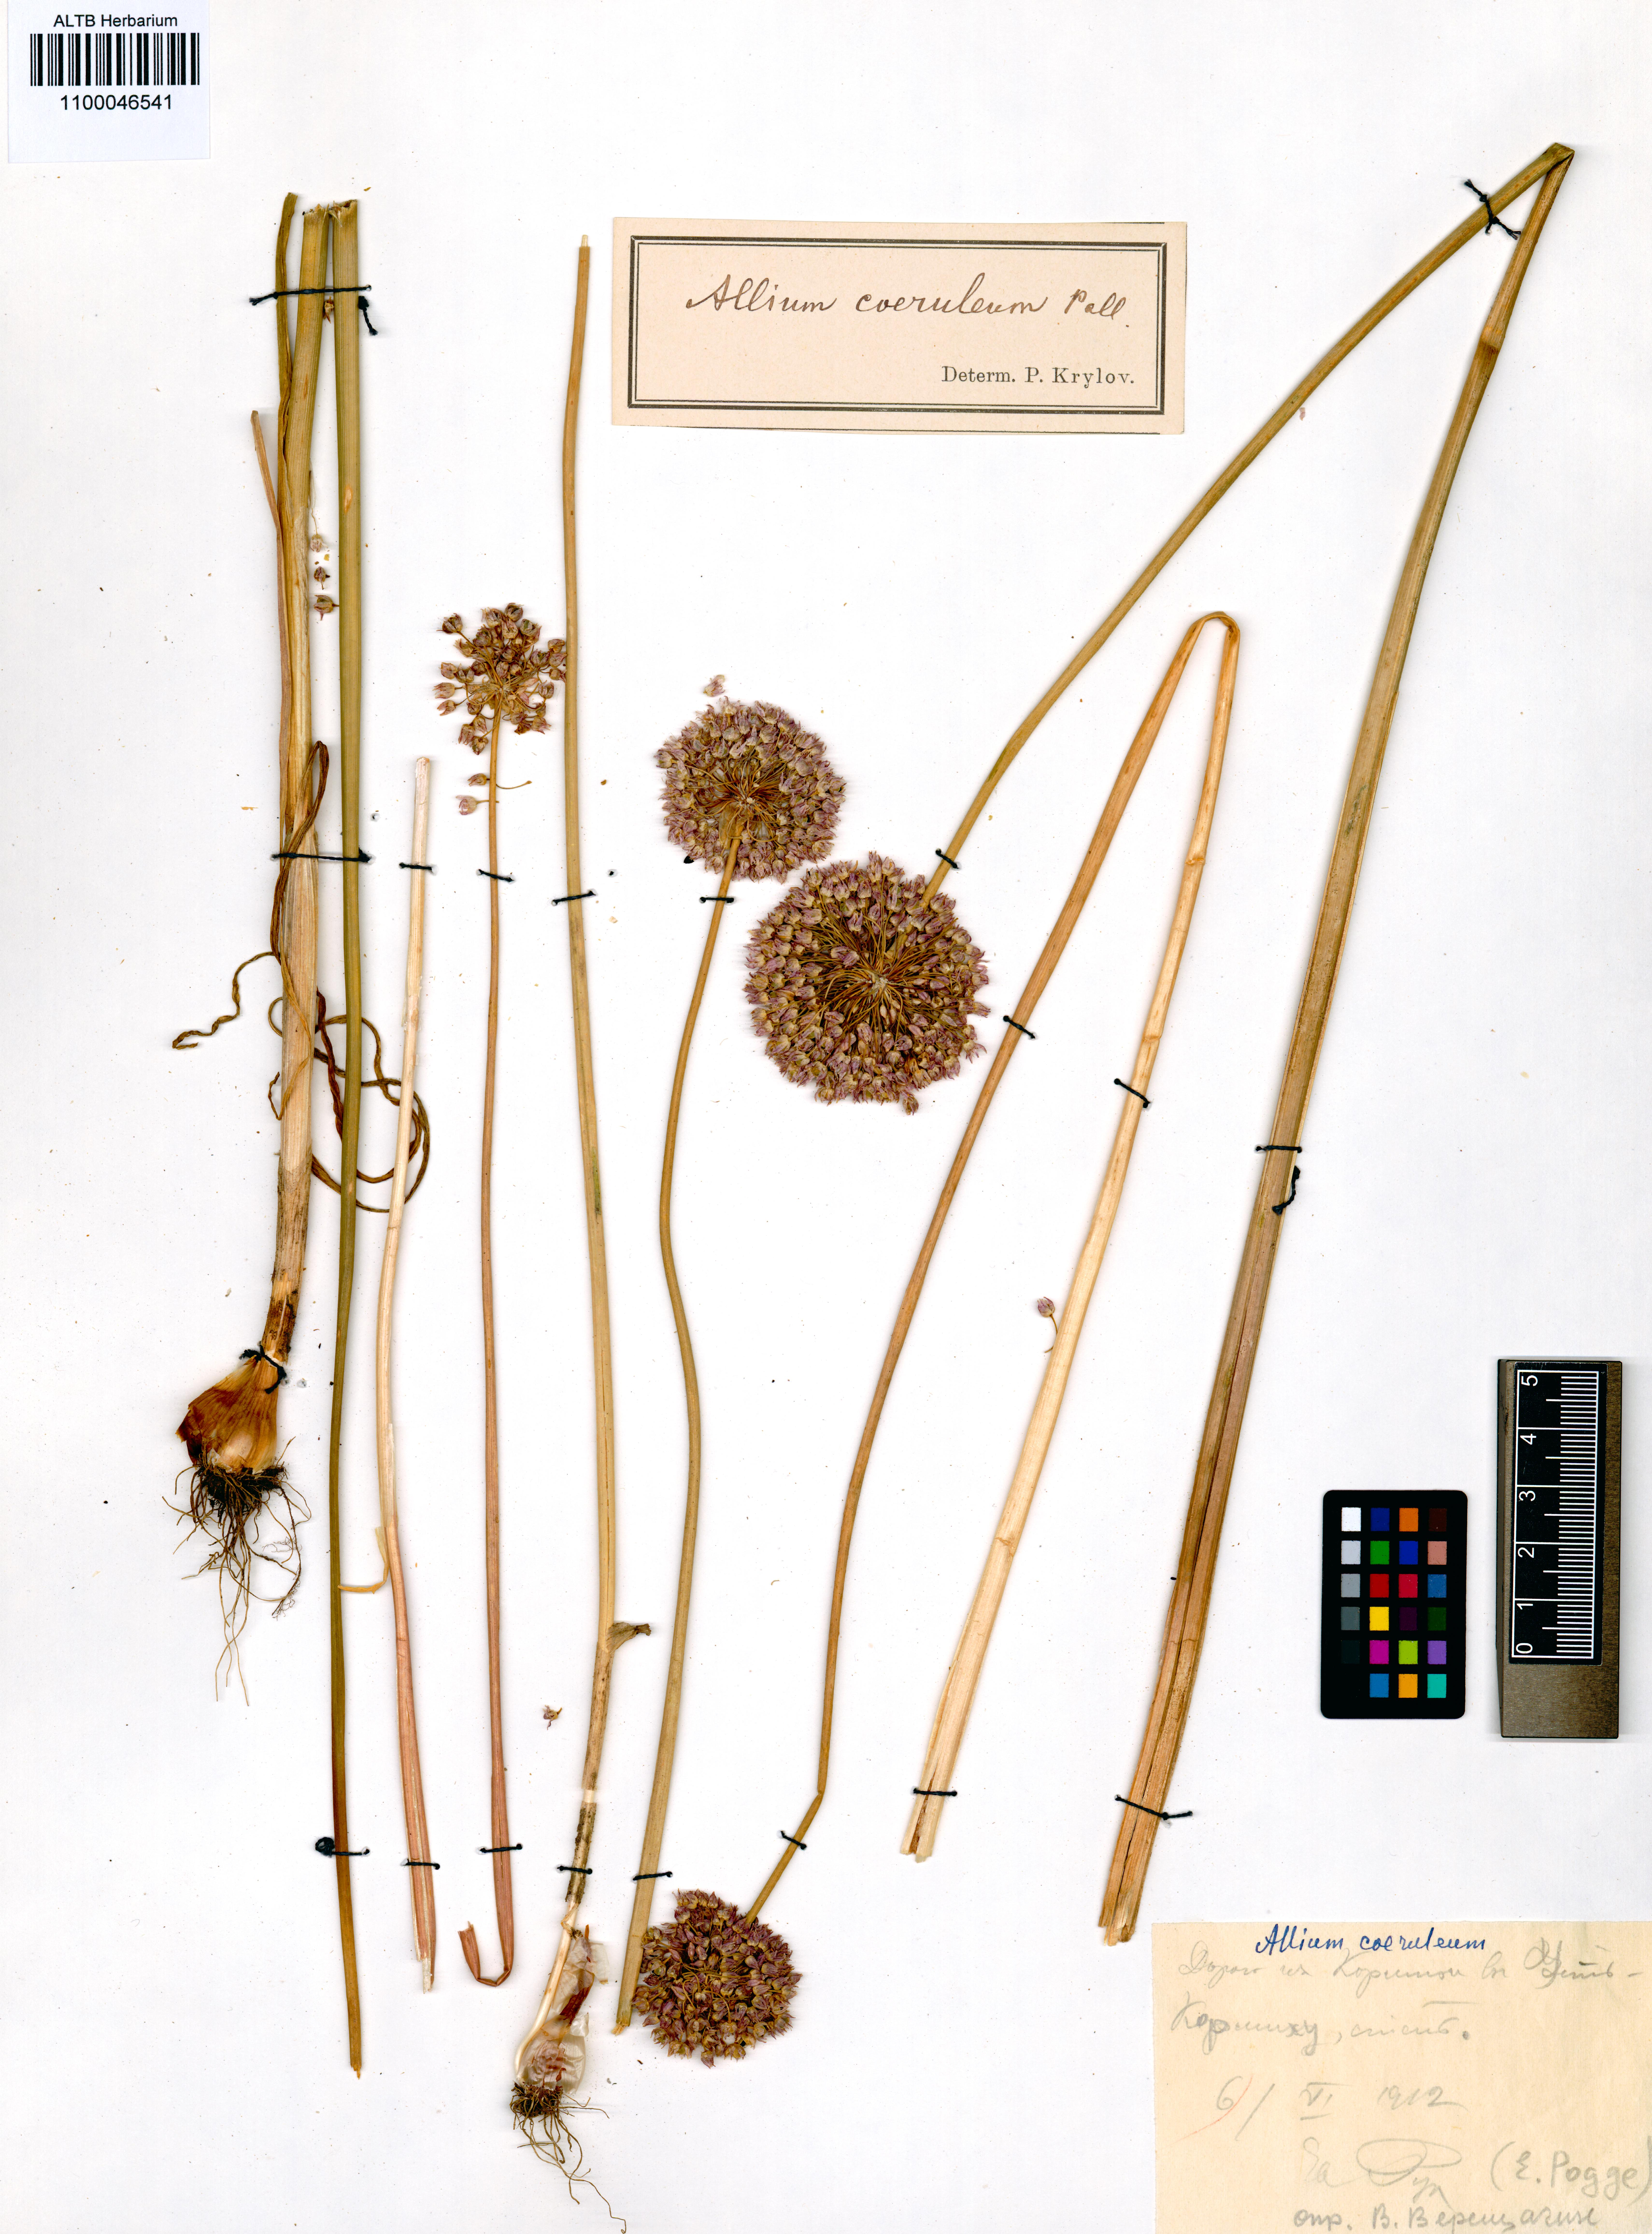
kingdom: Plantae
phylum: Tracheophyta
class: Liliopsida
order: Asparagales
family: Amaryllidaceae
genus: Allium
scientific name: Allium caeruleum
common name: Blue-of-the-heavens
